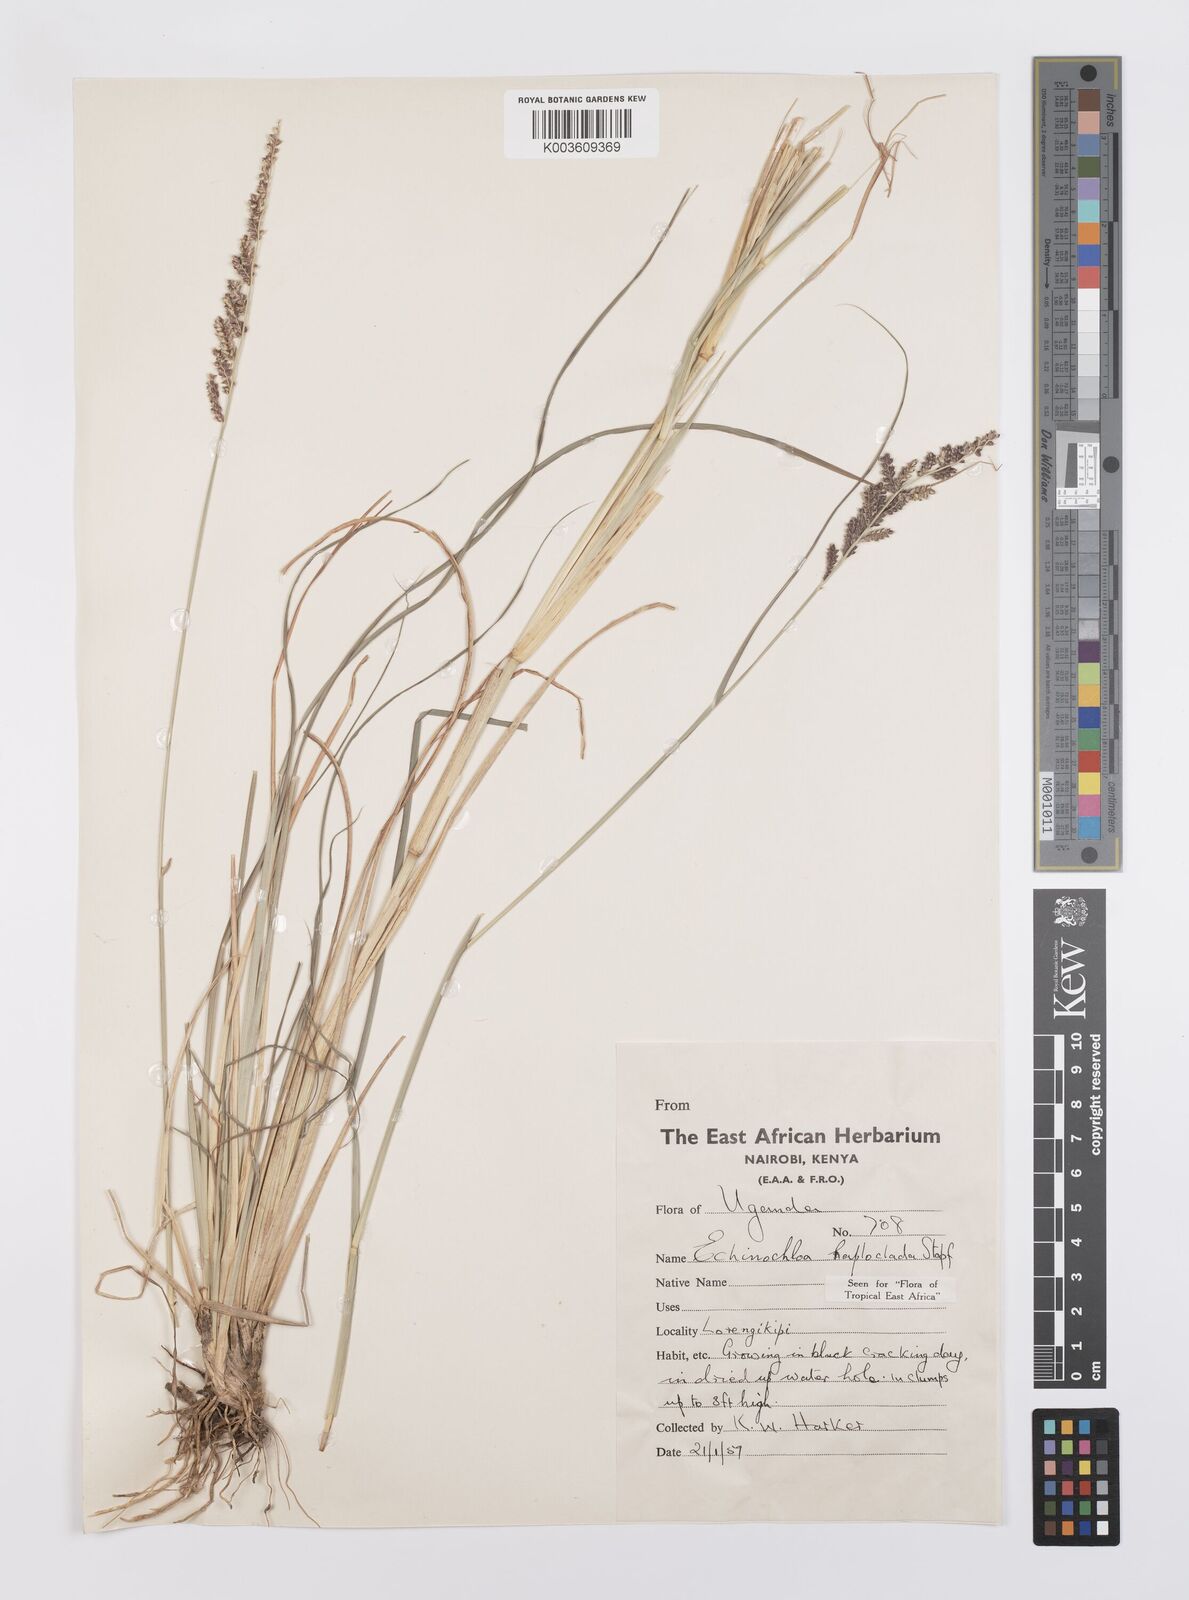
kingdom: Plantae
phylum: Tracheophyta
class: Liliopsida
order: Poales
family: Poaceae
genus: Echinochloa
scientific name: Echinochloa haploclada
